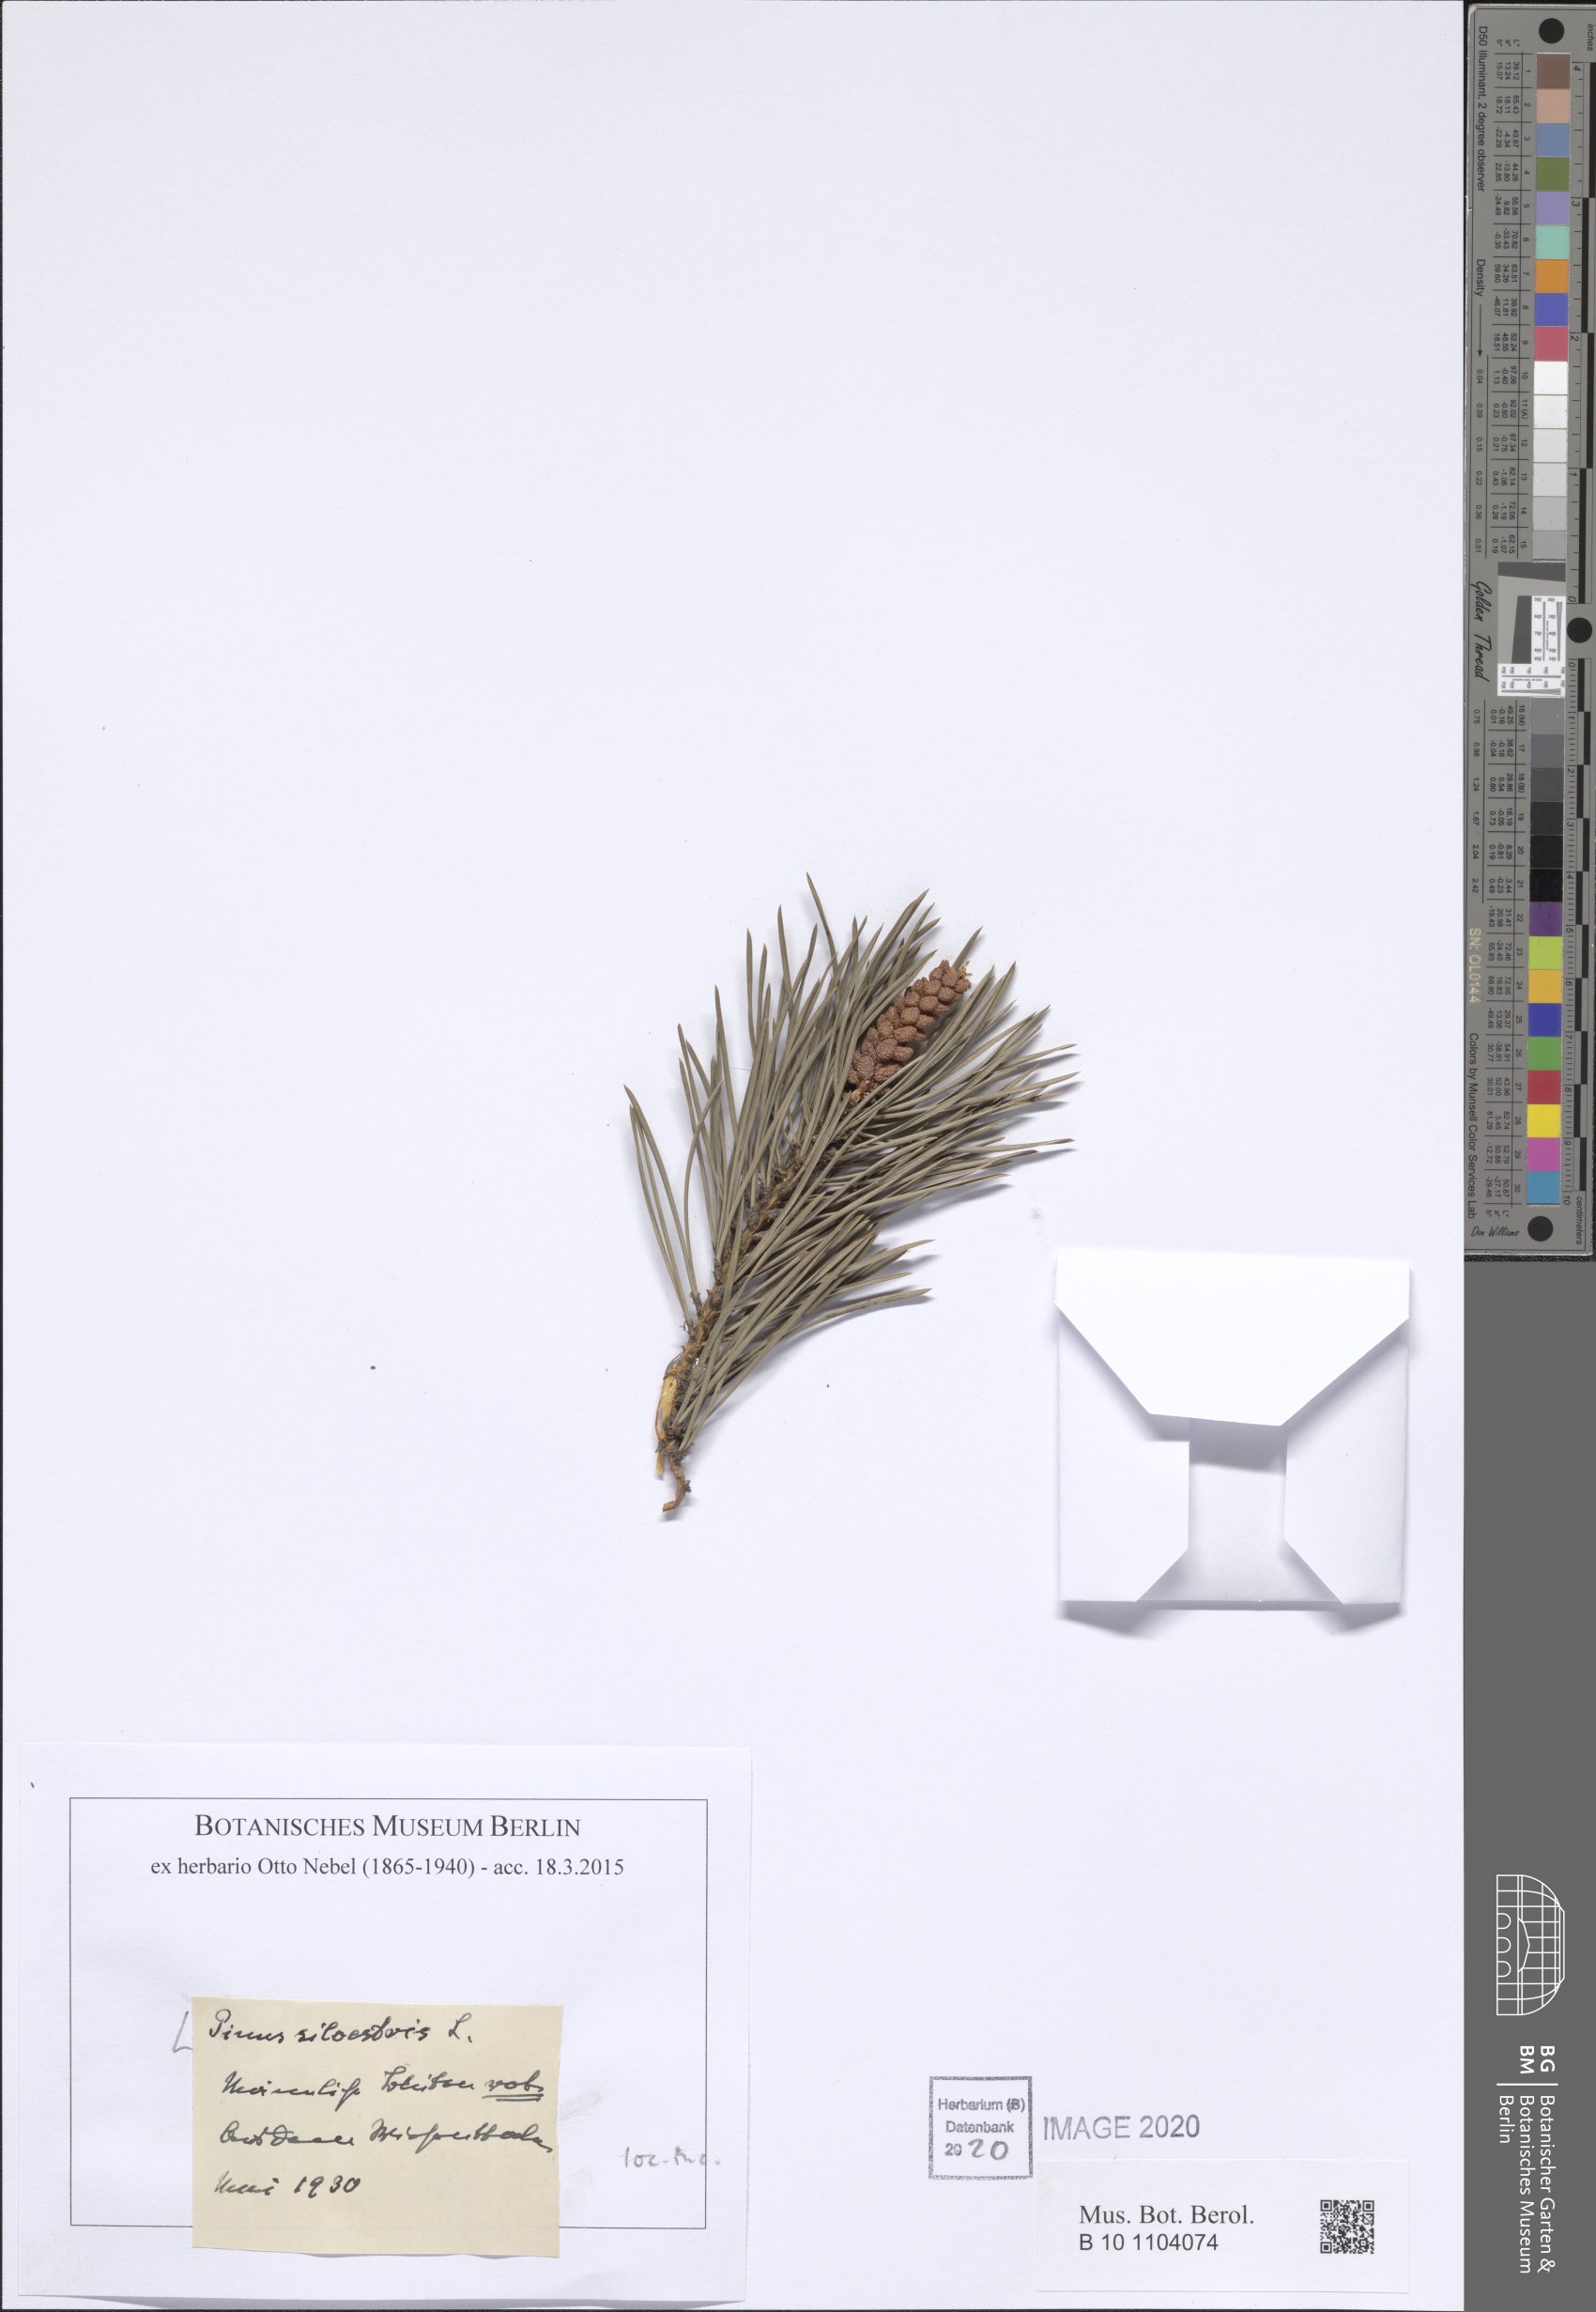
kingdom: Plantae
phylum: Tracheophyta
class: Pinopsida
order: Pinales
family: Pinaceae
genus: Pinus
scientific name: Pinus sylvestris
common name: Scots pine
